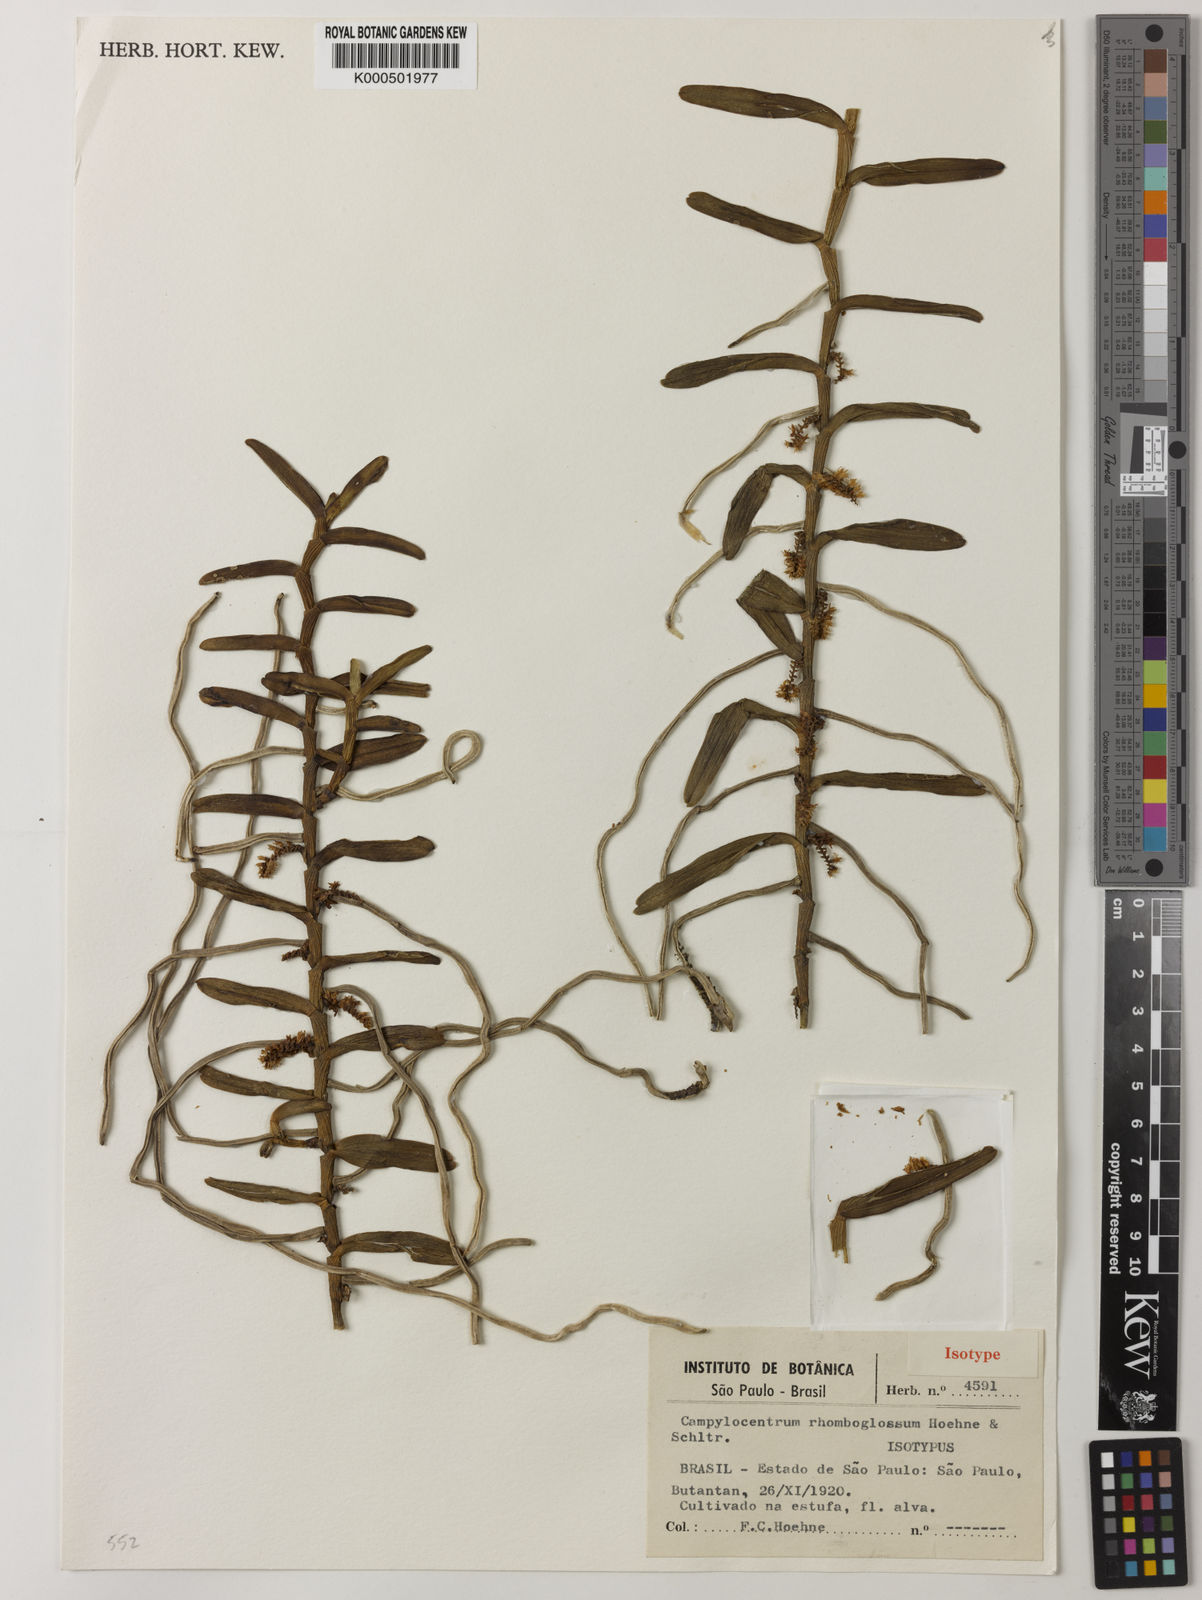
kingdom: Plantae
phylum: Tracheophyta
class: Liliopsida
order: Asparagales
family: Orchidaceae
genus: Campylocentrum
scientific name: Campylocentrum aromaticum
